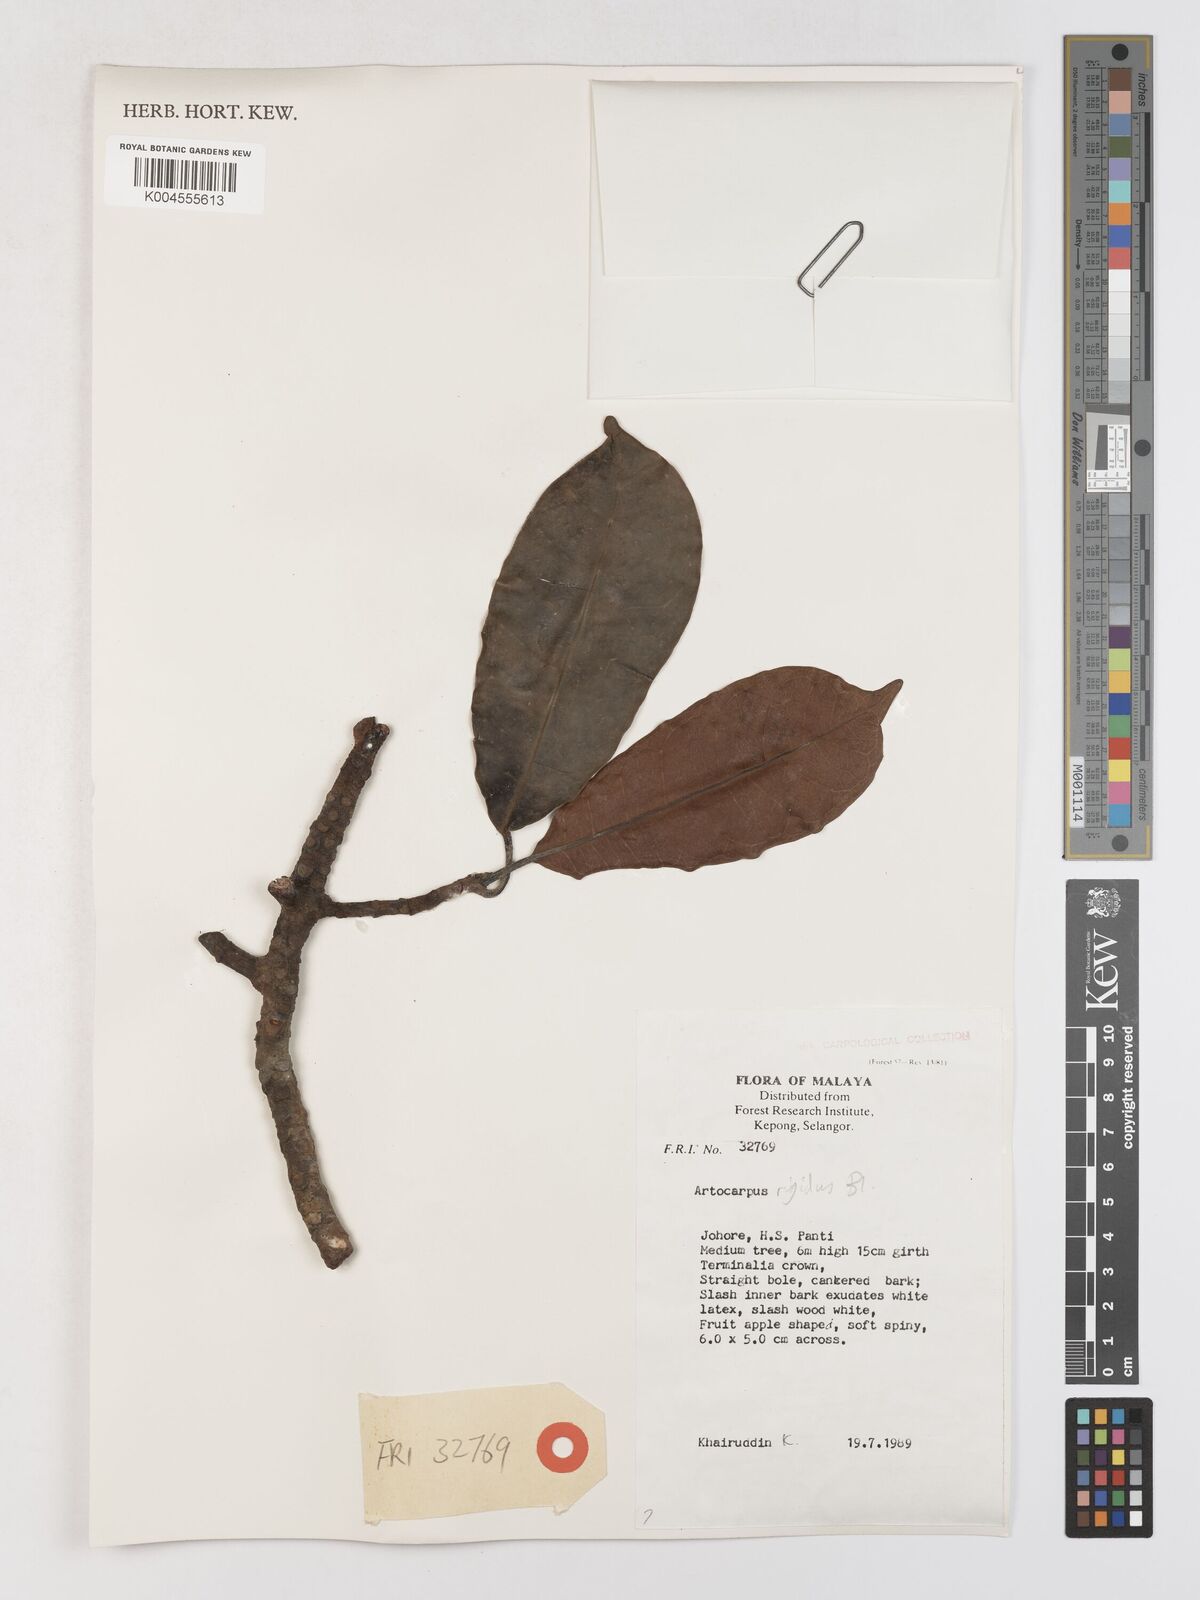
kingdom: Plantae
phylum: Tracheophyta
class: Magnoliopsida
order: Rosales
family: Moraceae
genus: Artocarpus
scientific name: Artocarpus
